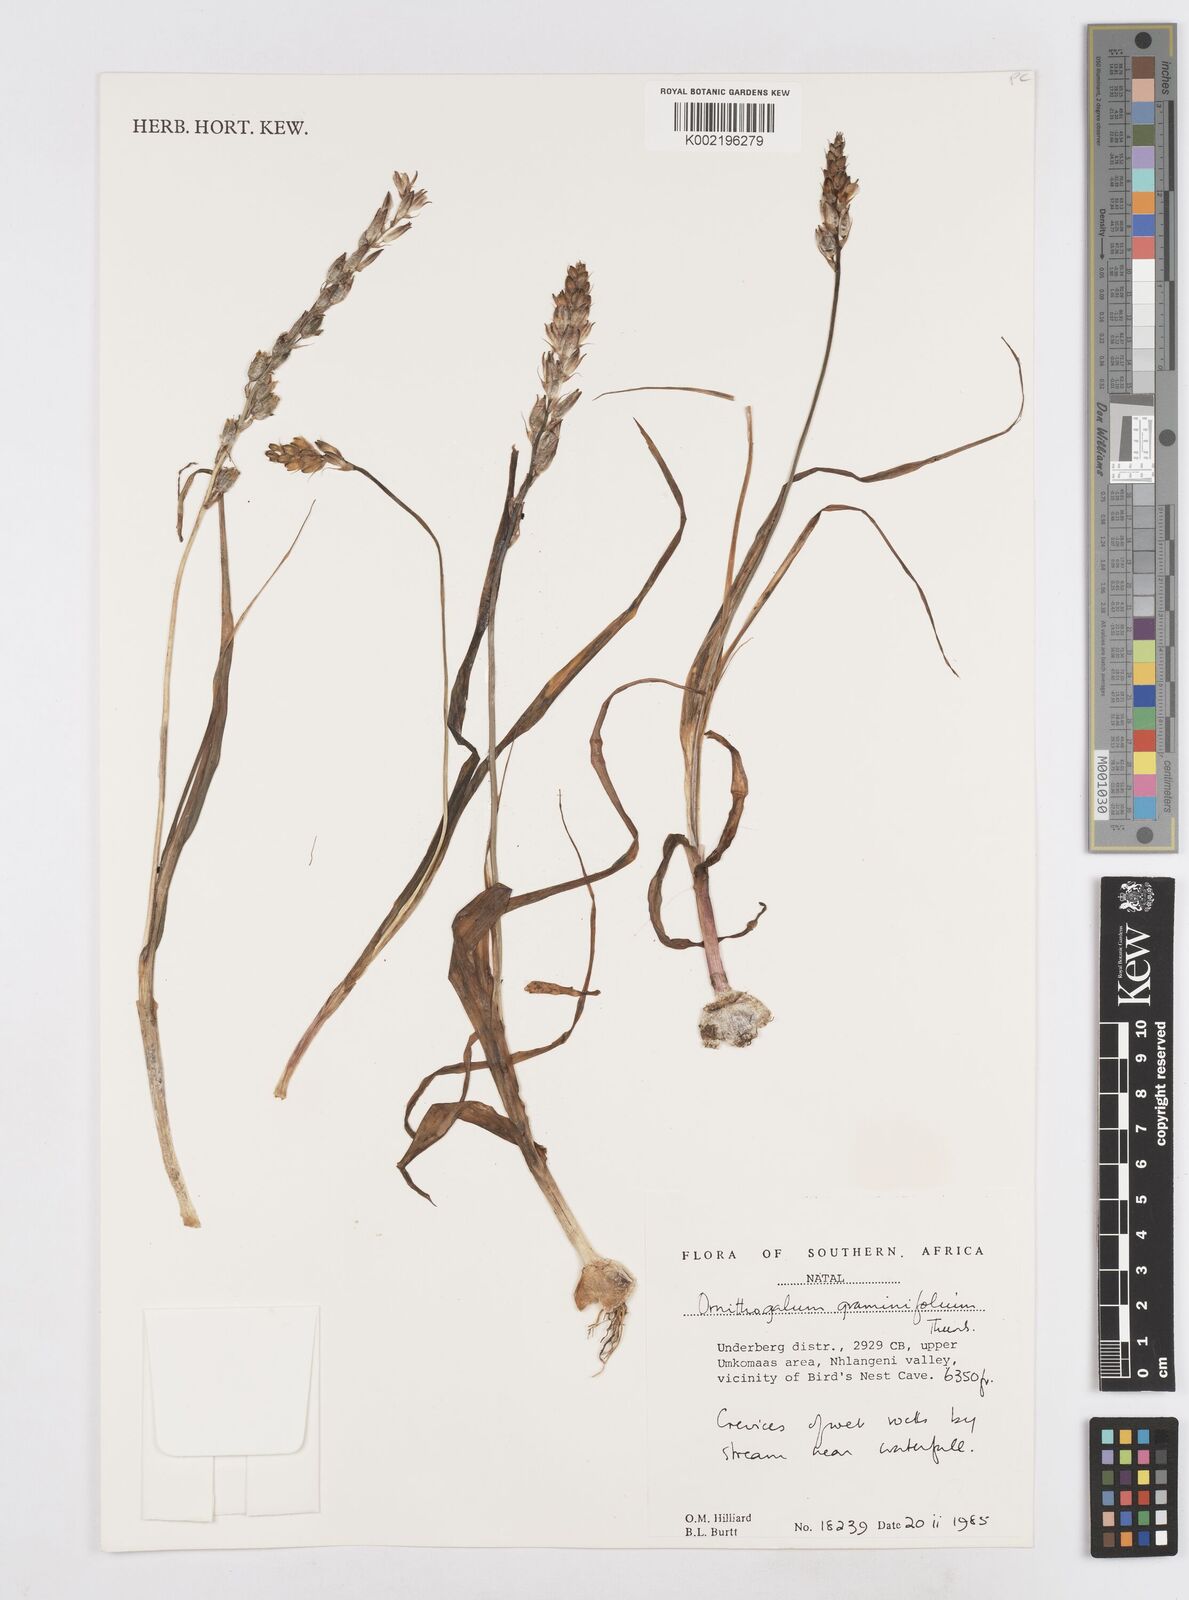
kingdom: Plantae
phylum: Tracheophyta
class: Liliopsida
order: Asparagales
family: Asparagaceae
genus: Ornithogalum
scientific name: Ornithogalum graminifolium
